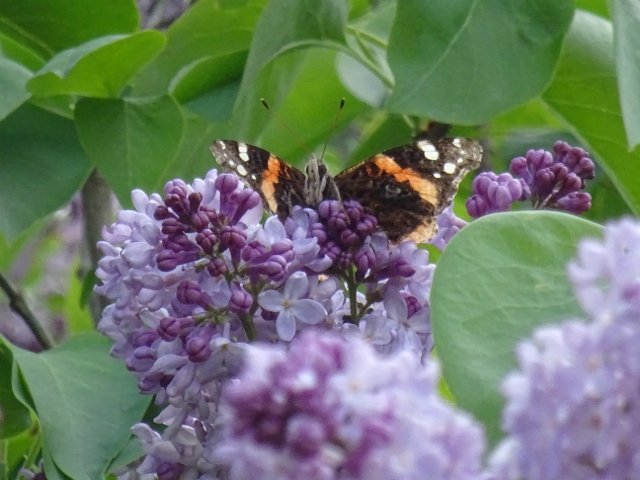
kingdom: Animalia
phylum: Arthropoda
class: Insecta
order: Lepidoptera
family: Nymphalidae
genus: Vanessa
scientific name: Vanessa atalanta
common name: Red Admiral
